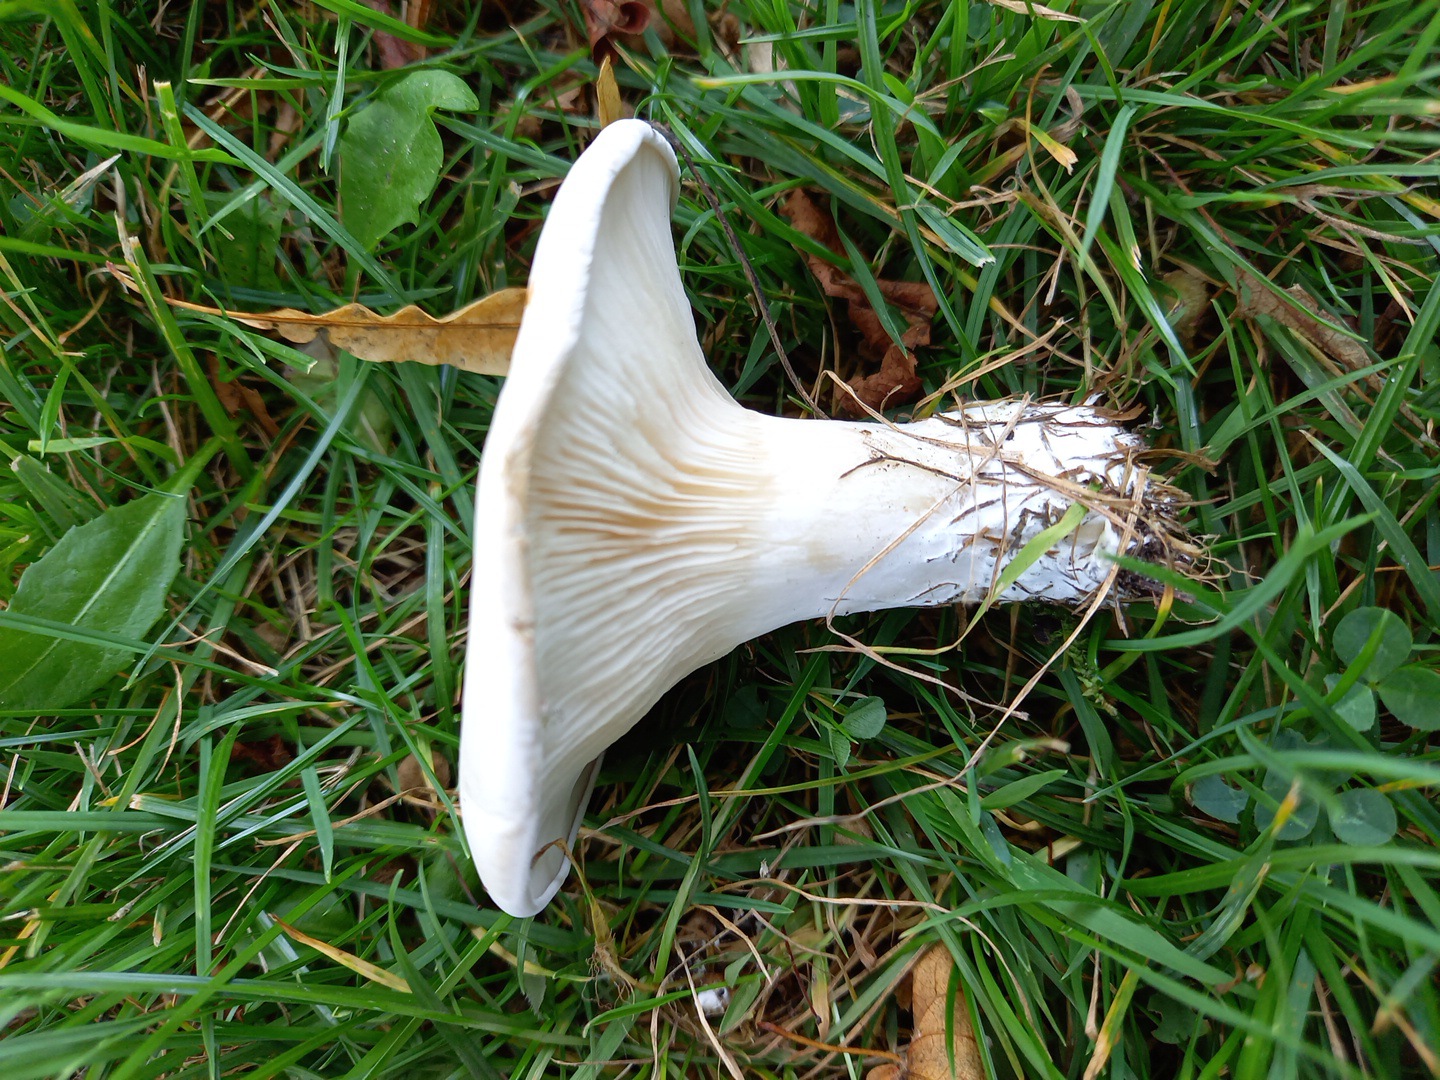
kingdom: Fungi
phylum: Basidiomycota
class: Agaricomycetes
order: Agaricales
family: Entolomataceae
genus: Clitopilus
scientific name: Clitopilus prunulus
